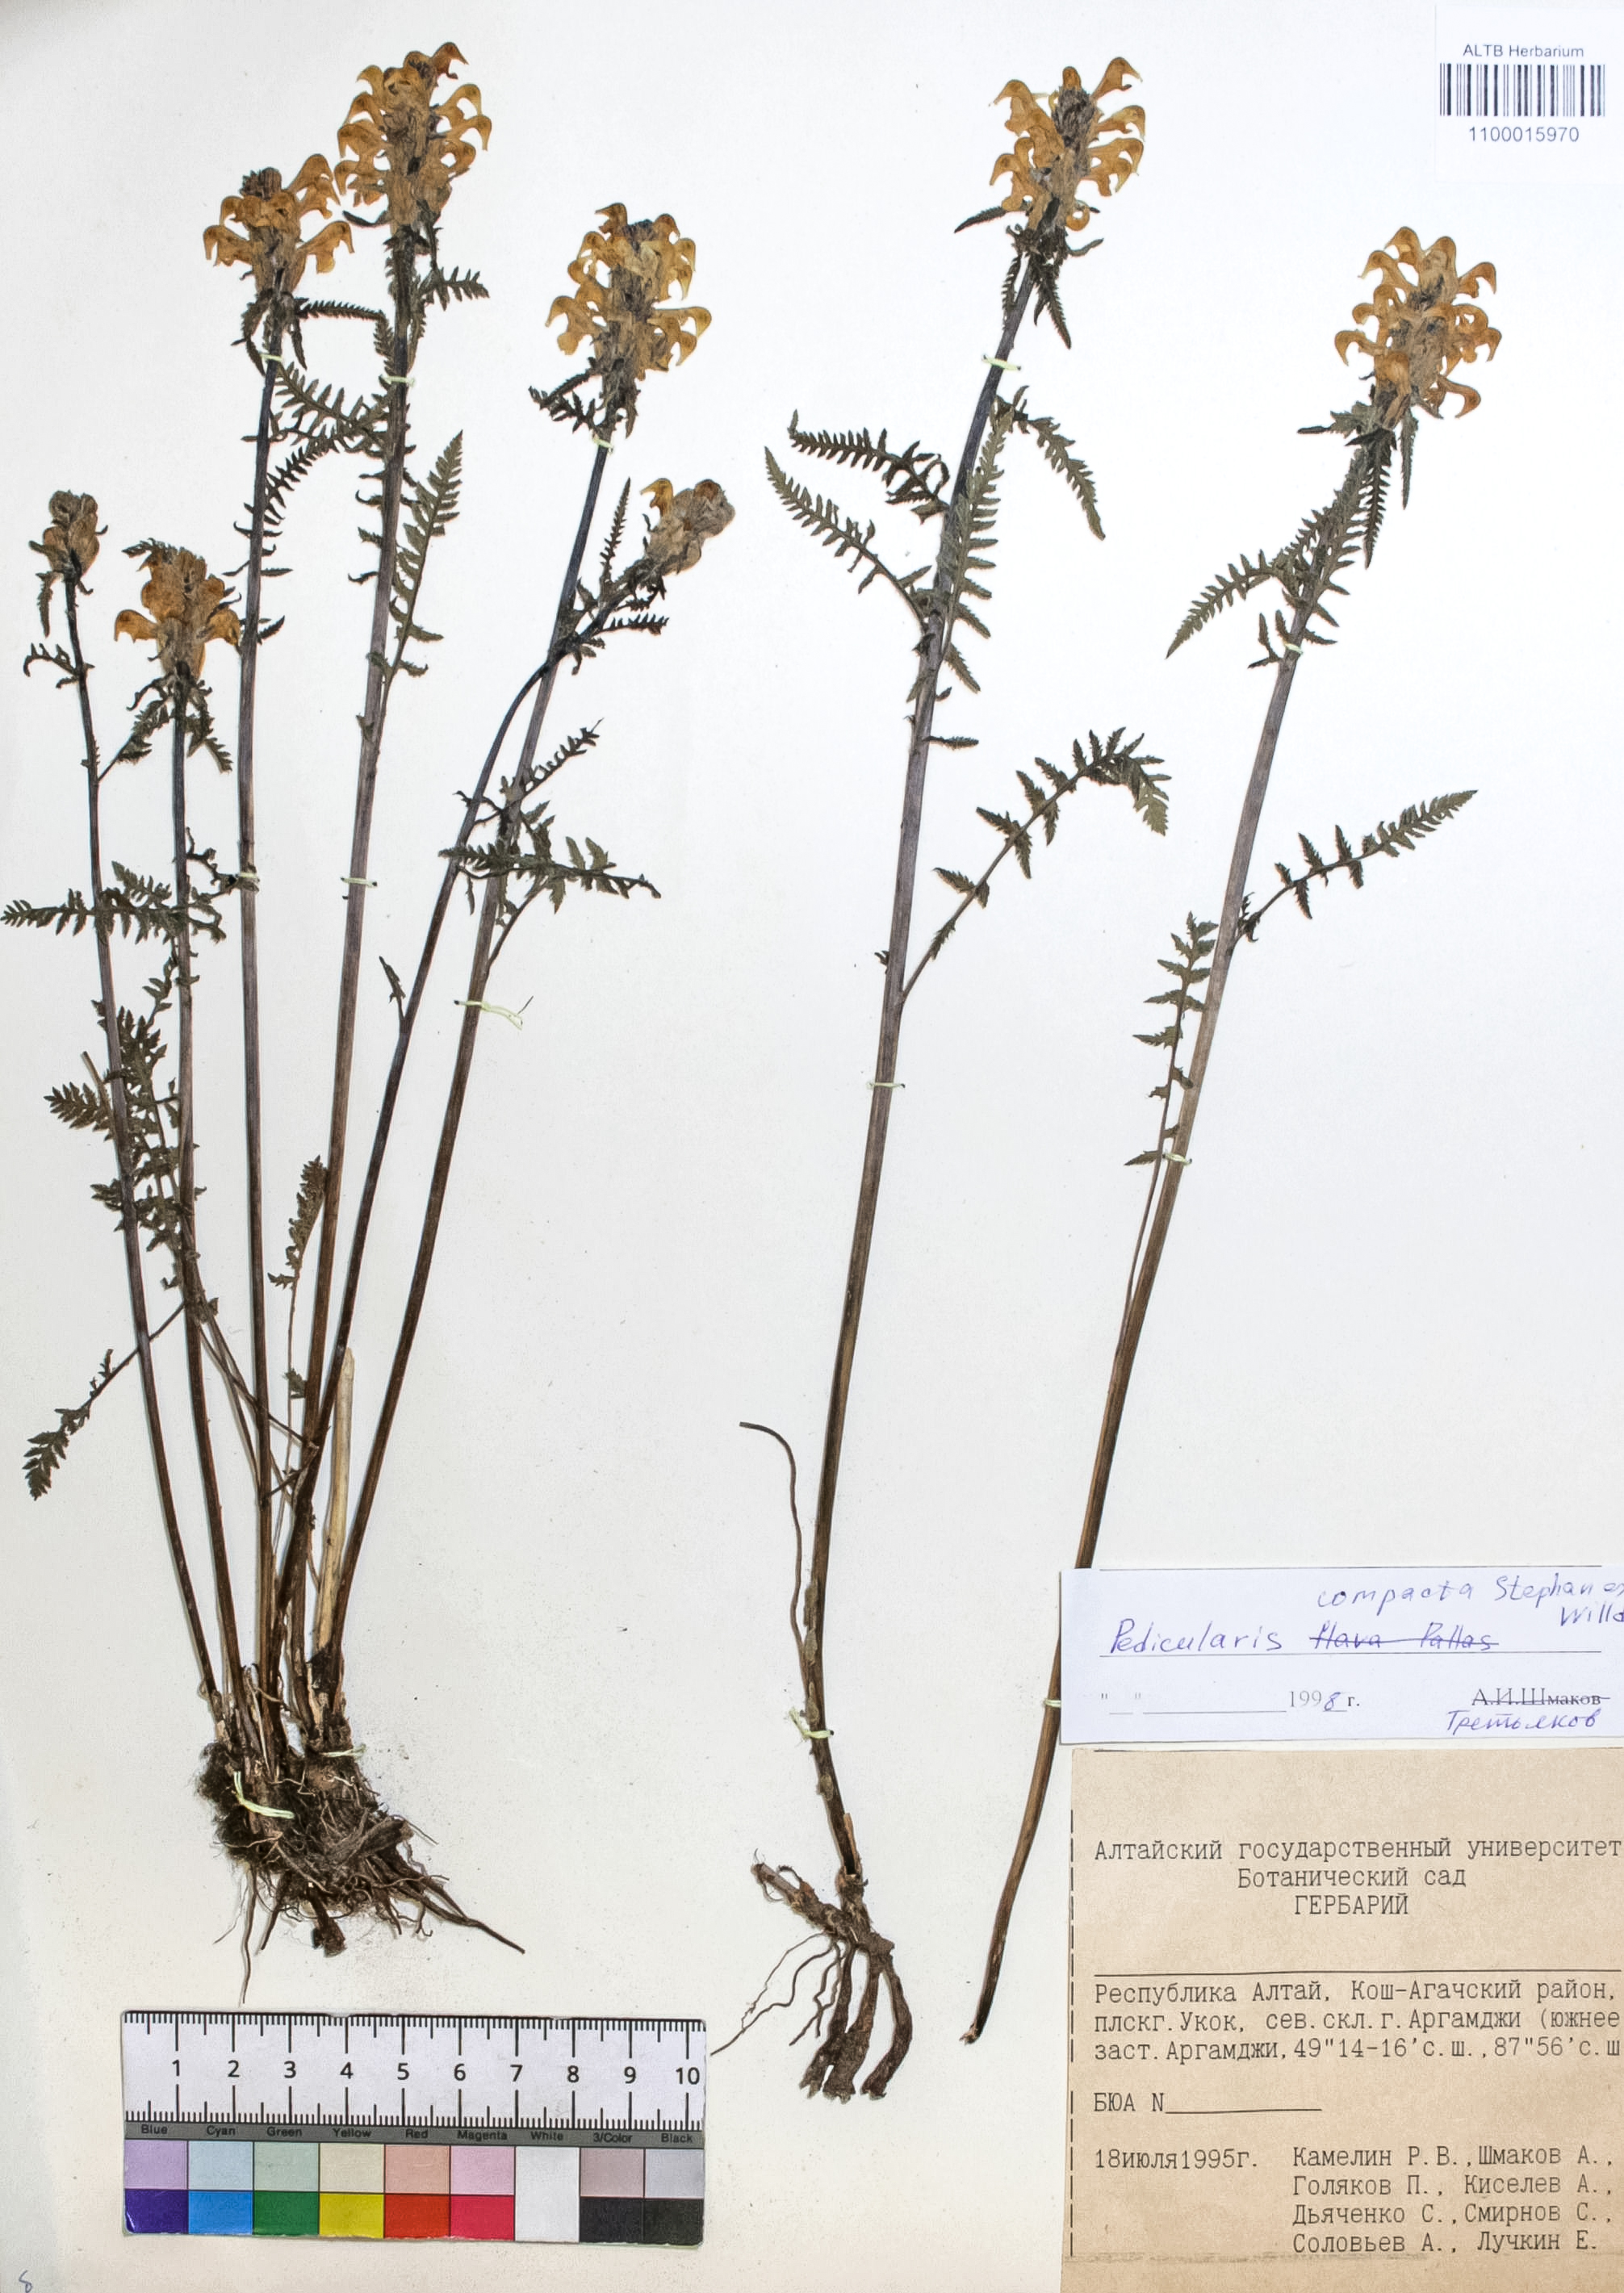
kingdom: Plantae
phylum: Tracheophyta
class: Magnoliopsida
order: Lamiales
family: Orobanchaceae
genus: Pedicularis
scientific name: Pedicularis compacta
